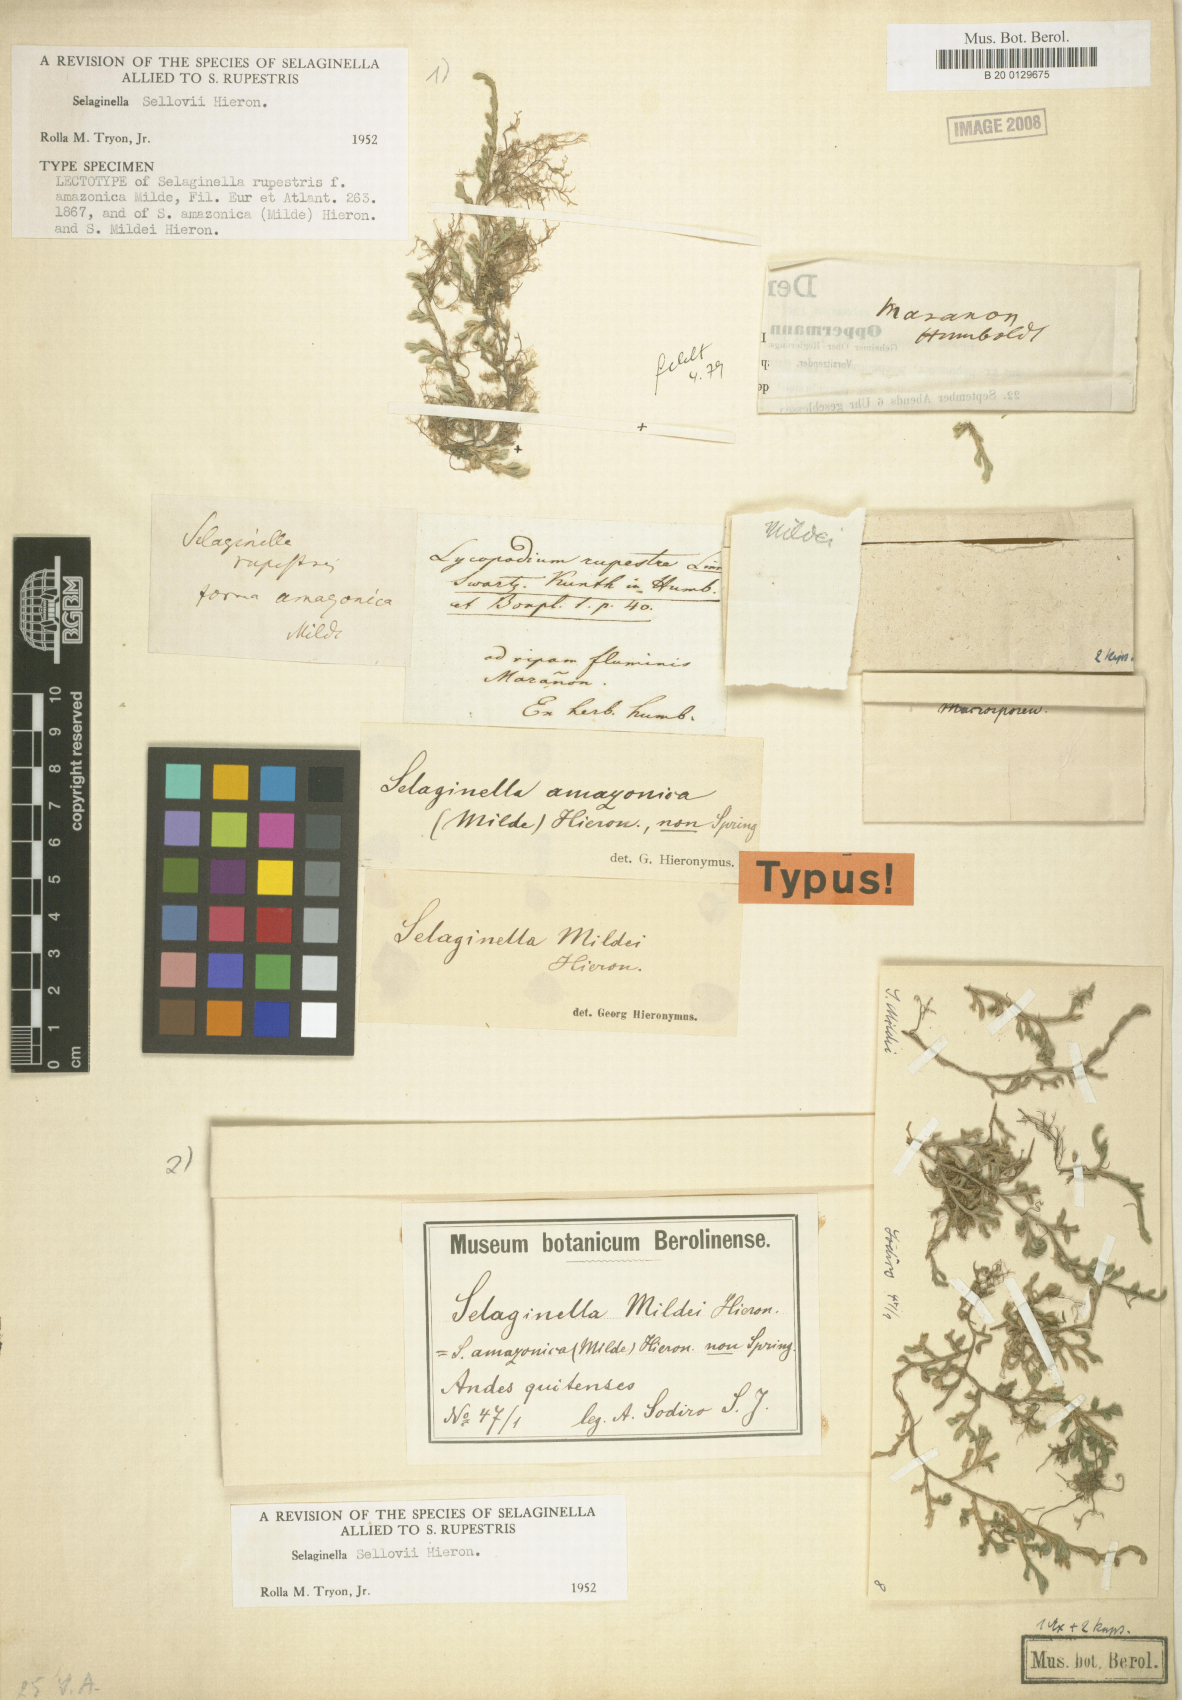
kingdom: Plantae
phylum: Tracheophyta
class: Lycopodiopsida
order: Selaginellales
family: Selaginellaceae
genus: Selaginella
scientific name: Selaginella sellowii
